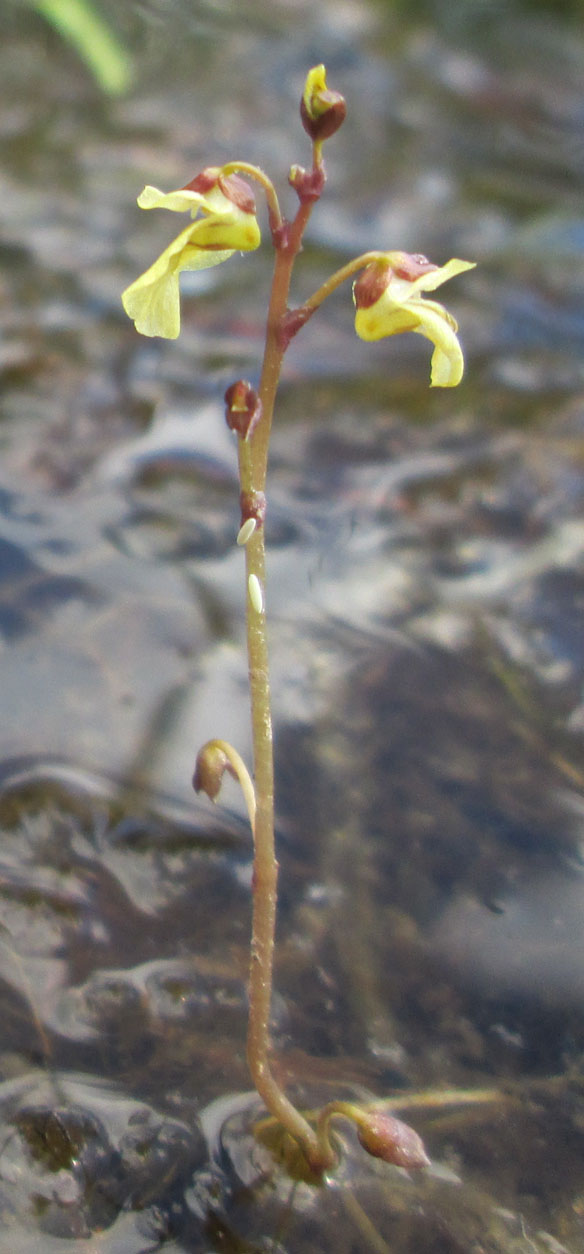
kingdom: Plantae
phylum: Tracheophyta
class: Magnoliopsida
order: Lamiales
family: Lentibulariaceae
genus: Utricularia
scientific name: Utricularia minor
